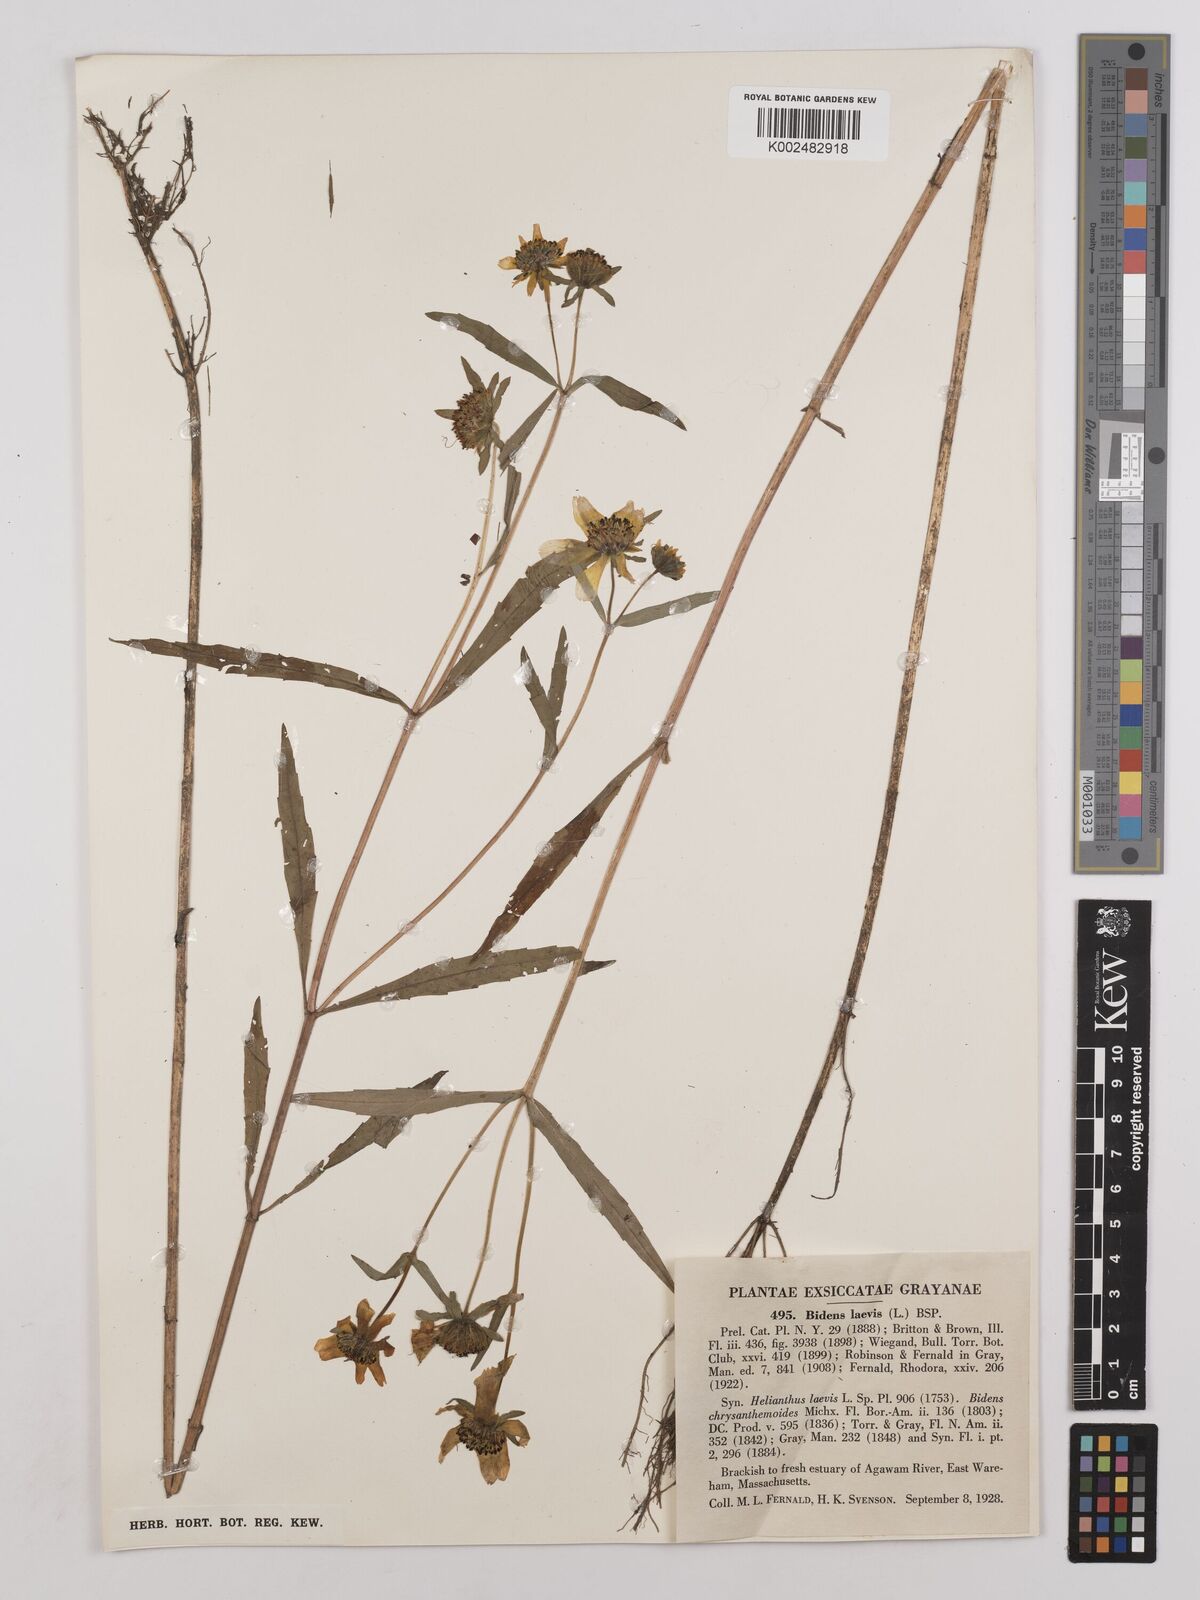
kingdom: Plantae
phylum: Tracheophyta
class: Magnoliopsida
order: Asterales
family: Asteraceae
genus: Bidens
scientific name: Bidens
